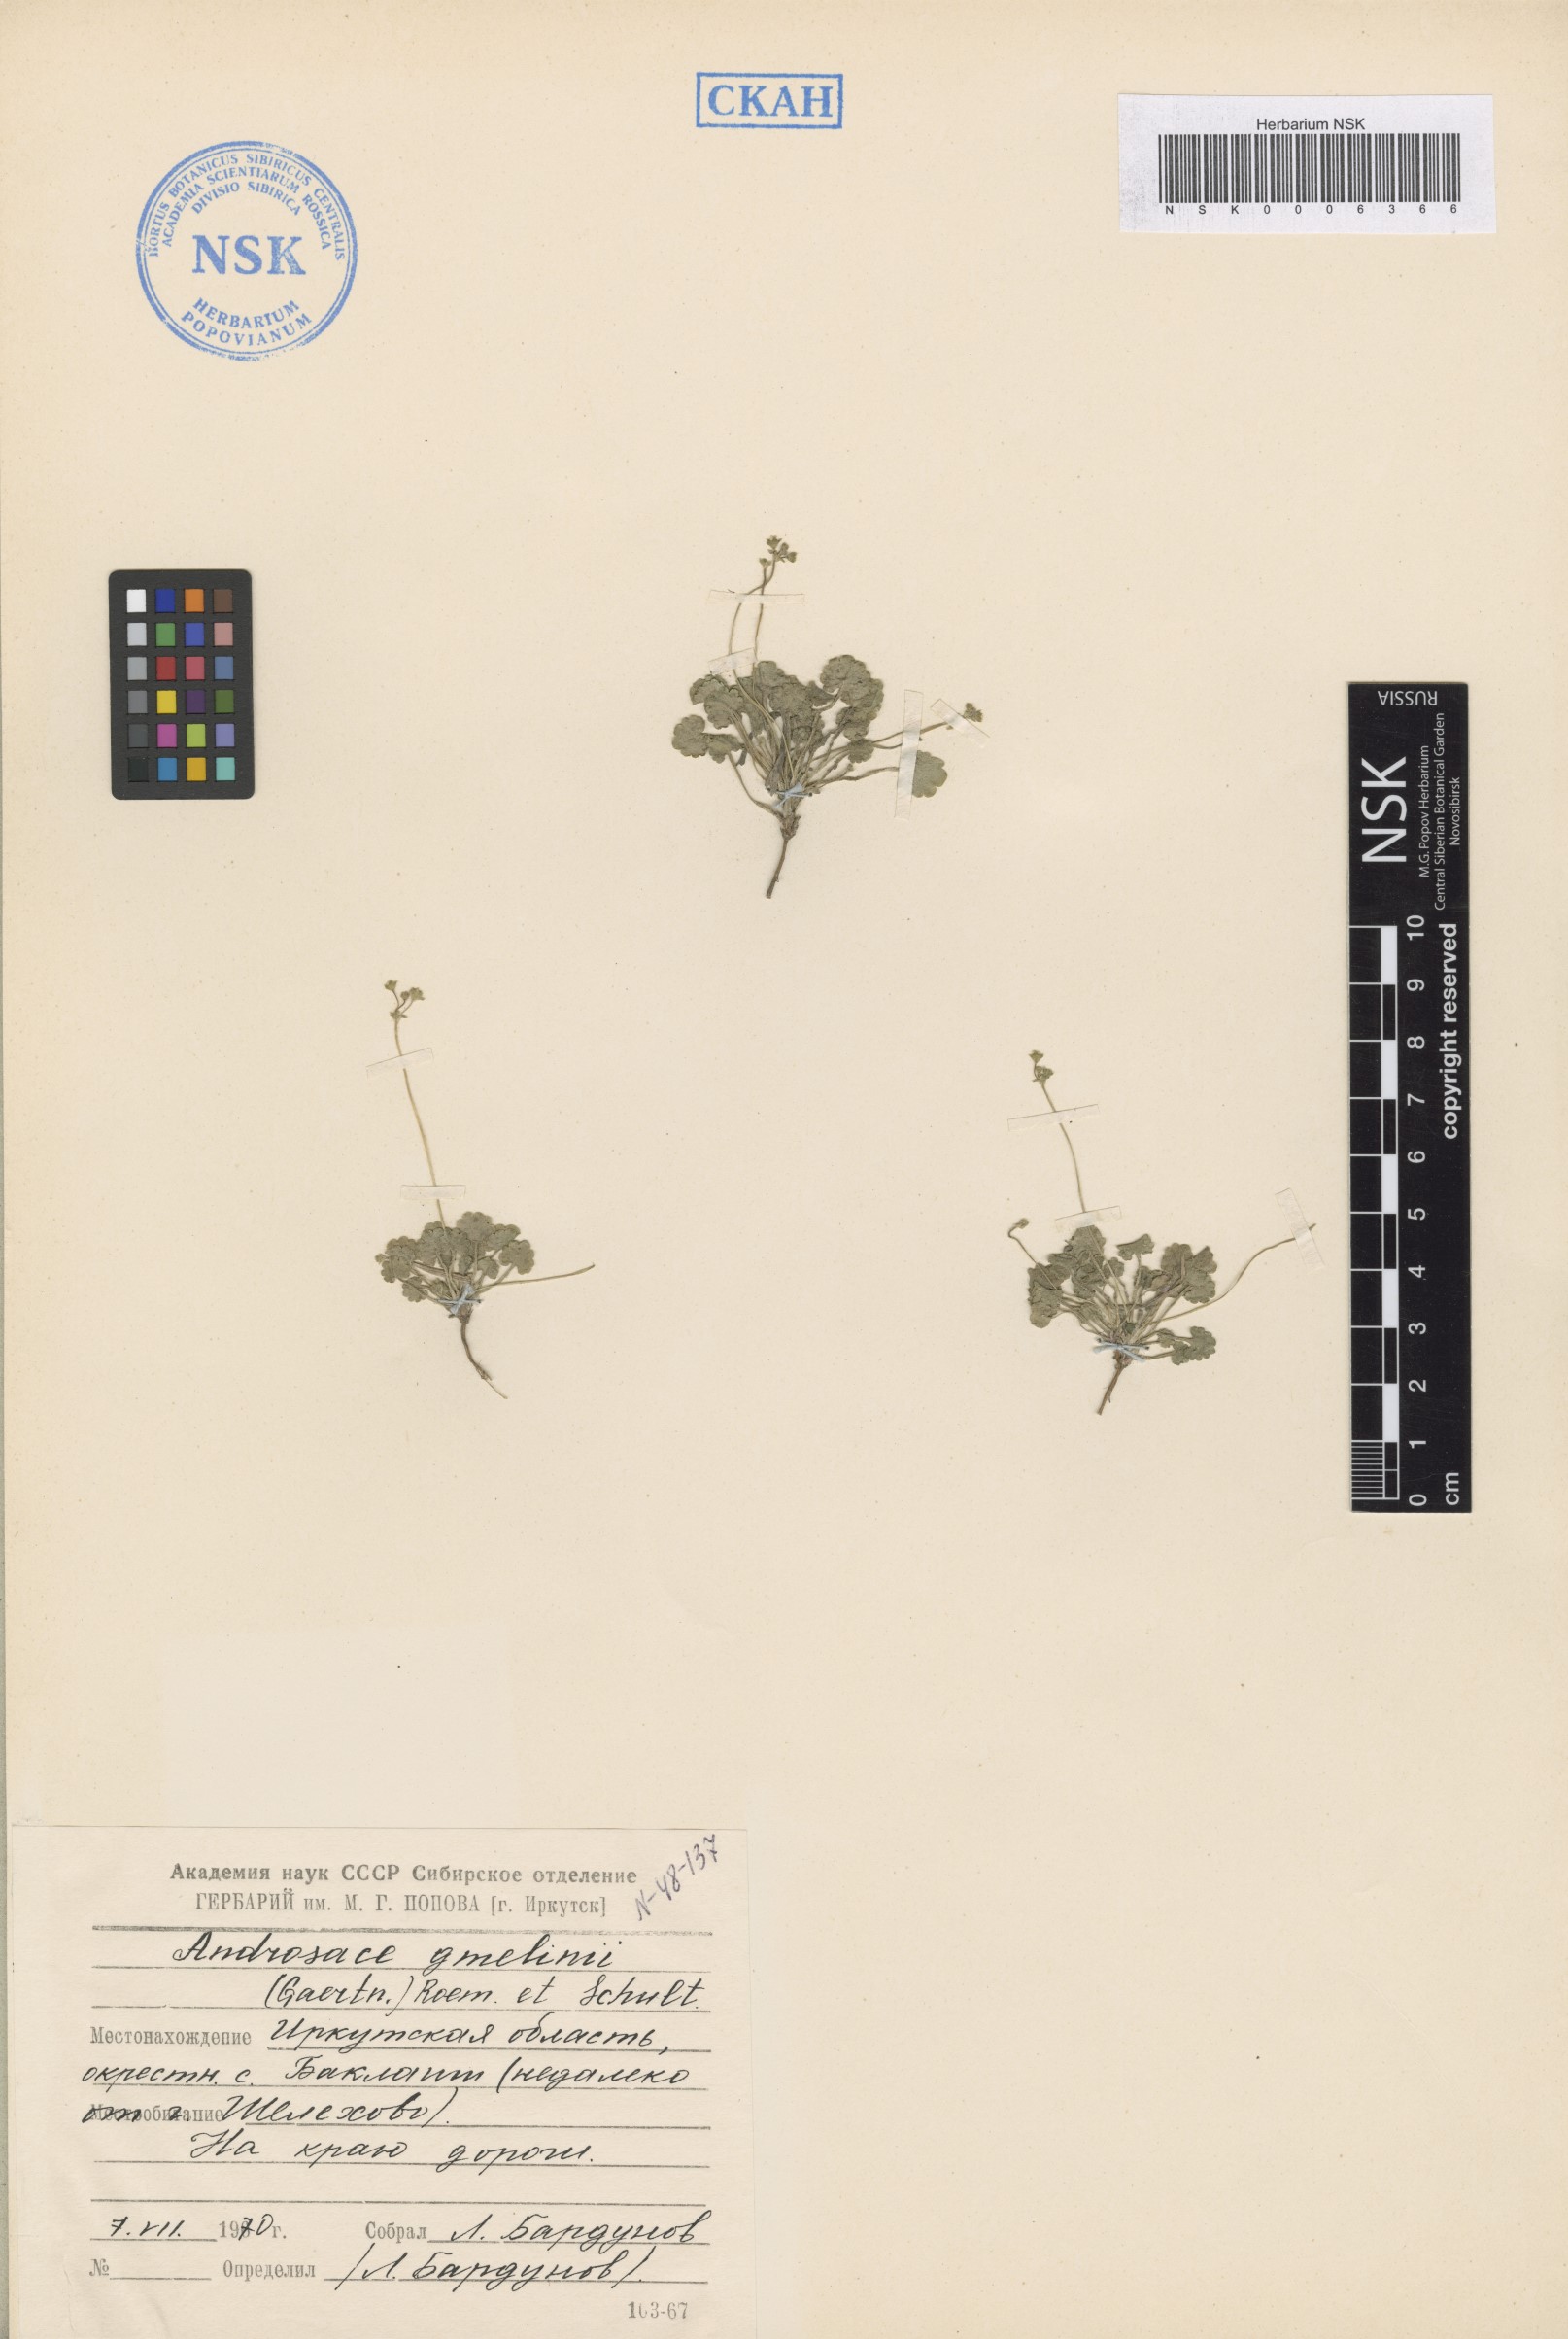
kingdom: Plantae
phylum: Tracheophyta
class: Magnoliopsida
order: Ericales
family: Primulaceae
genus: Androsace
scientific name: Androsace gmelinii
